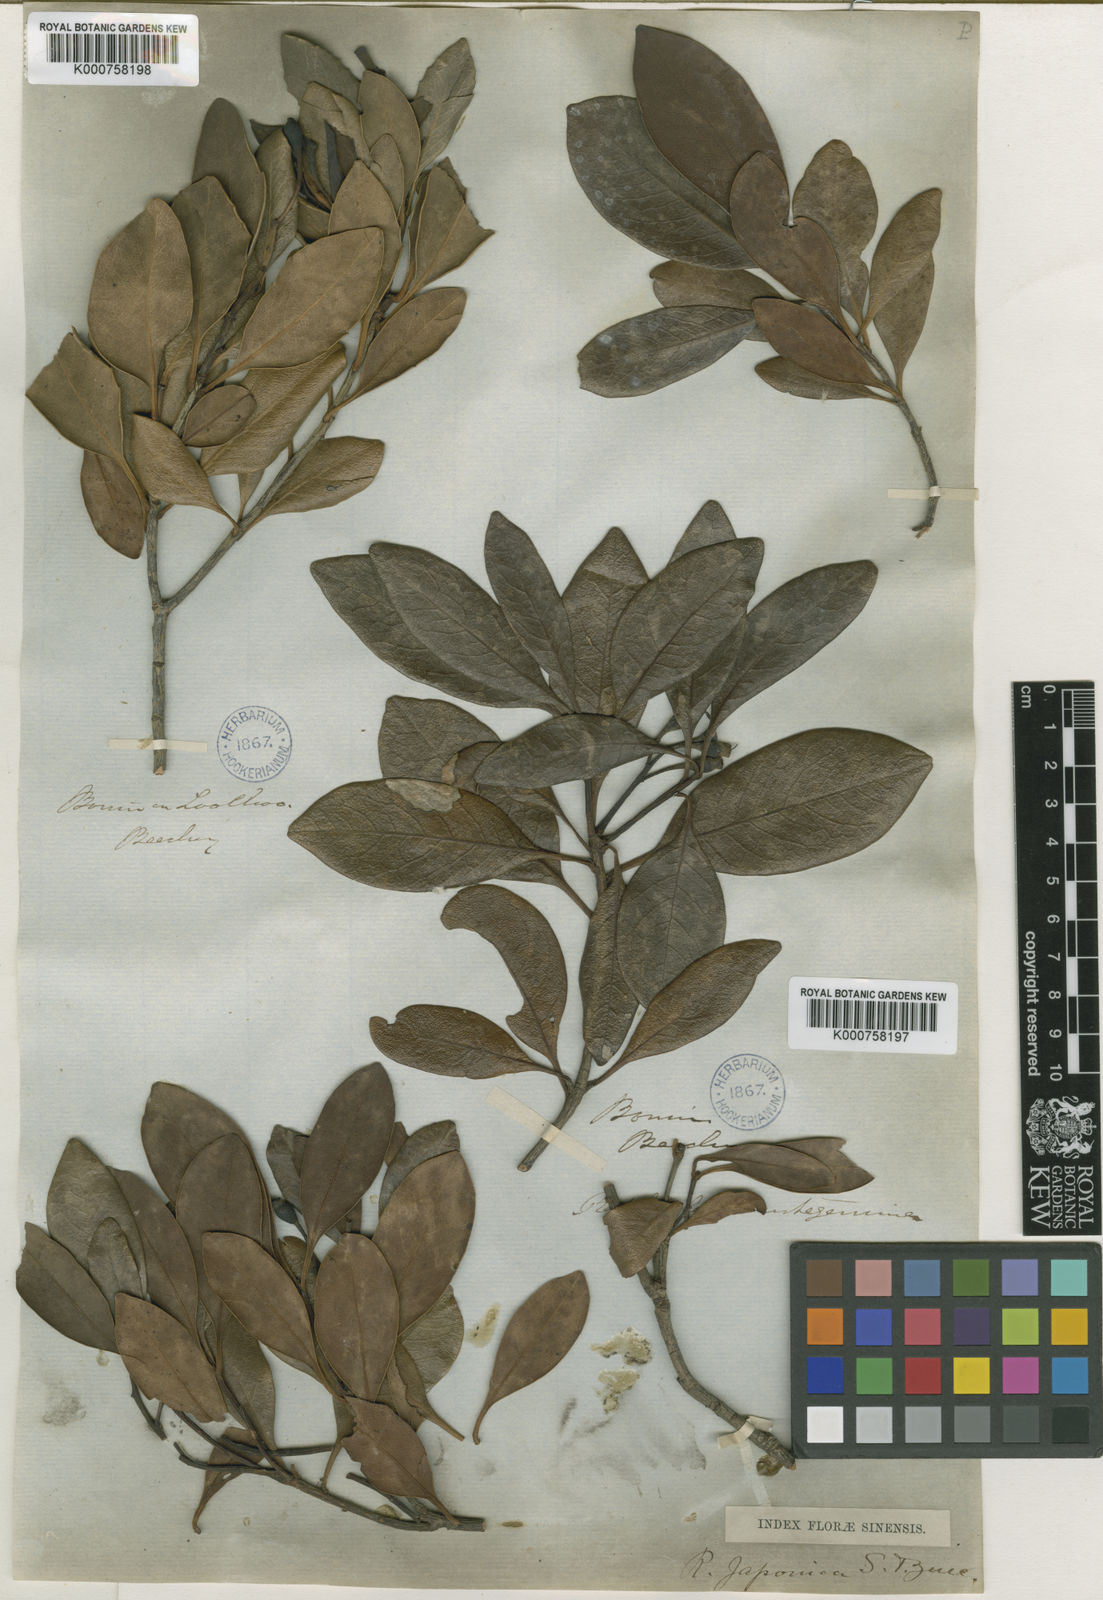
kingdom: Plantae
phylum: Tracheophyta
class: Magnoliopsida
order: Rosales
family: Rosaceae
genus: Rhaphiolepis
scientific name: Rhaphiolepis
